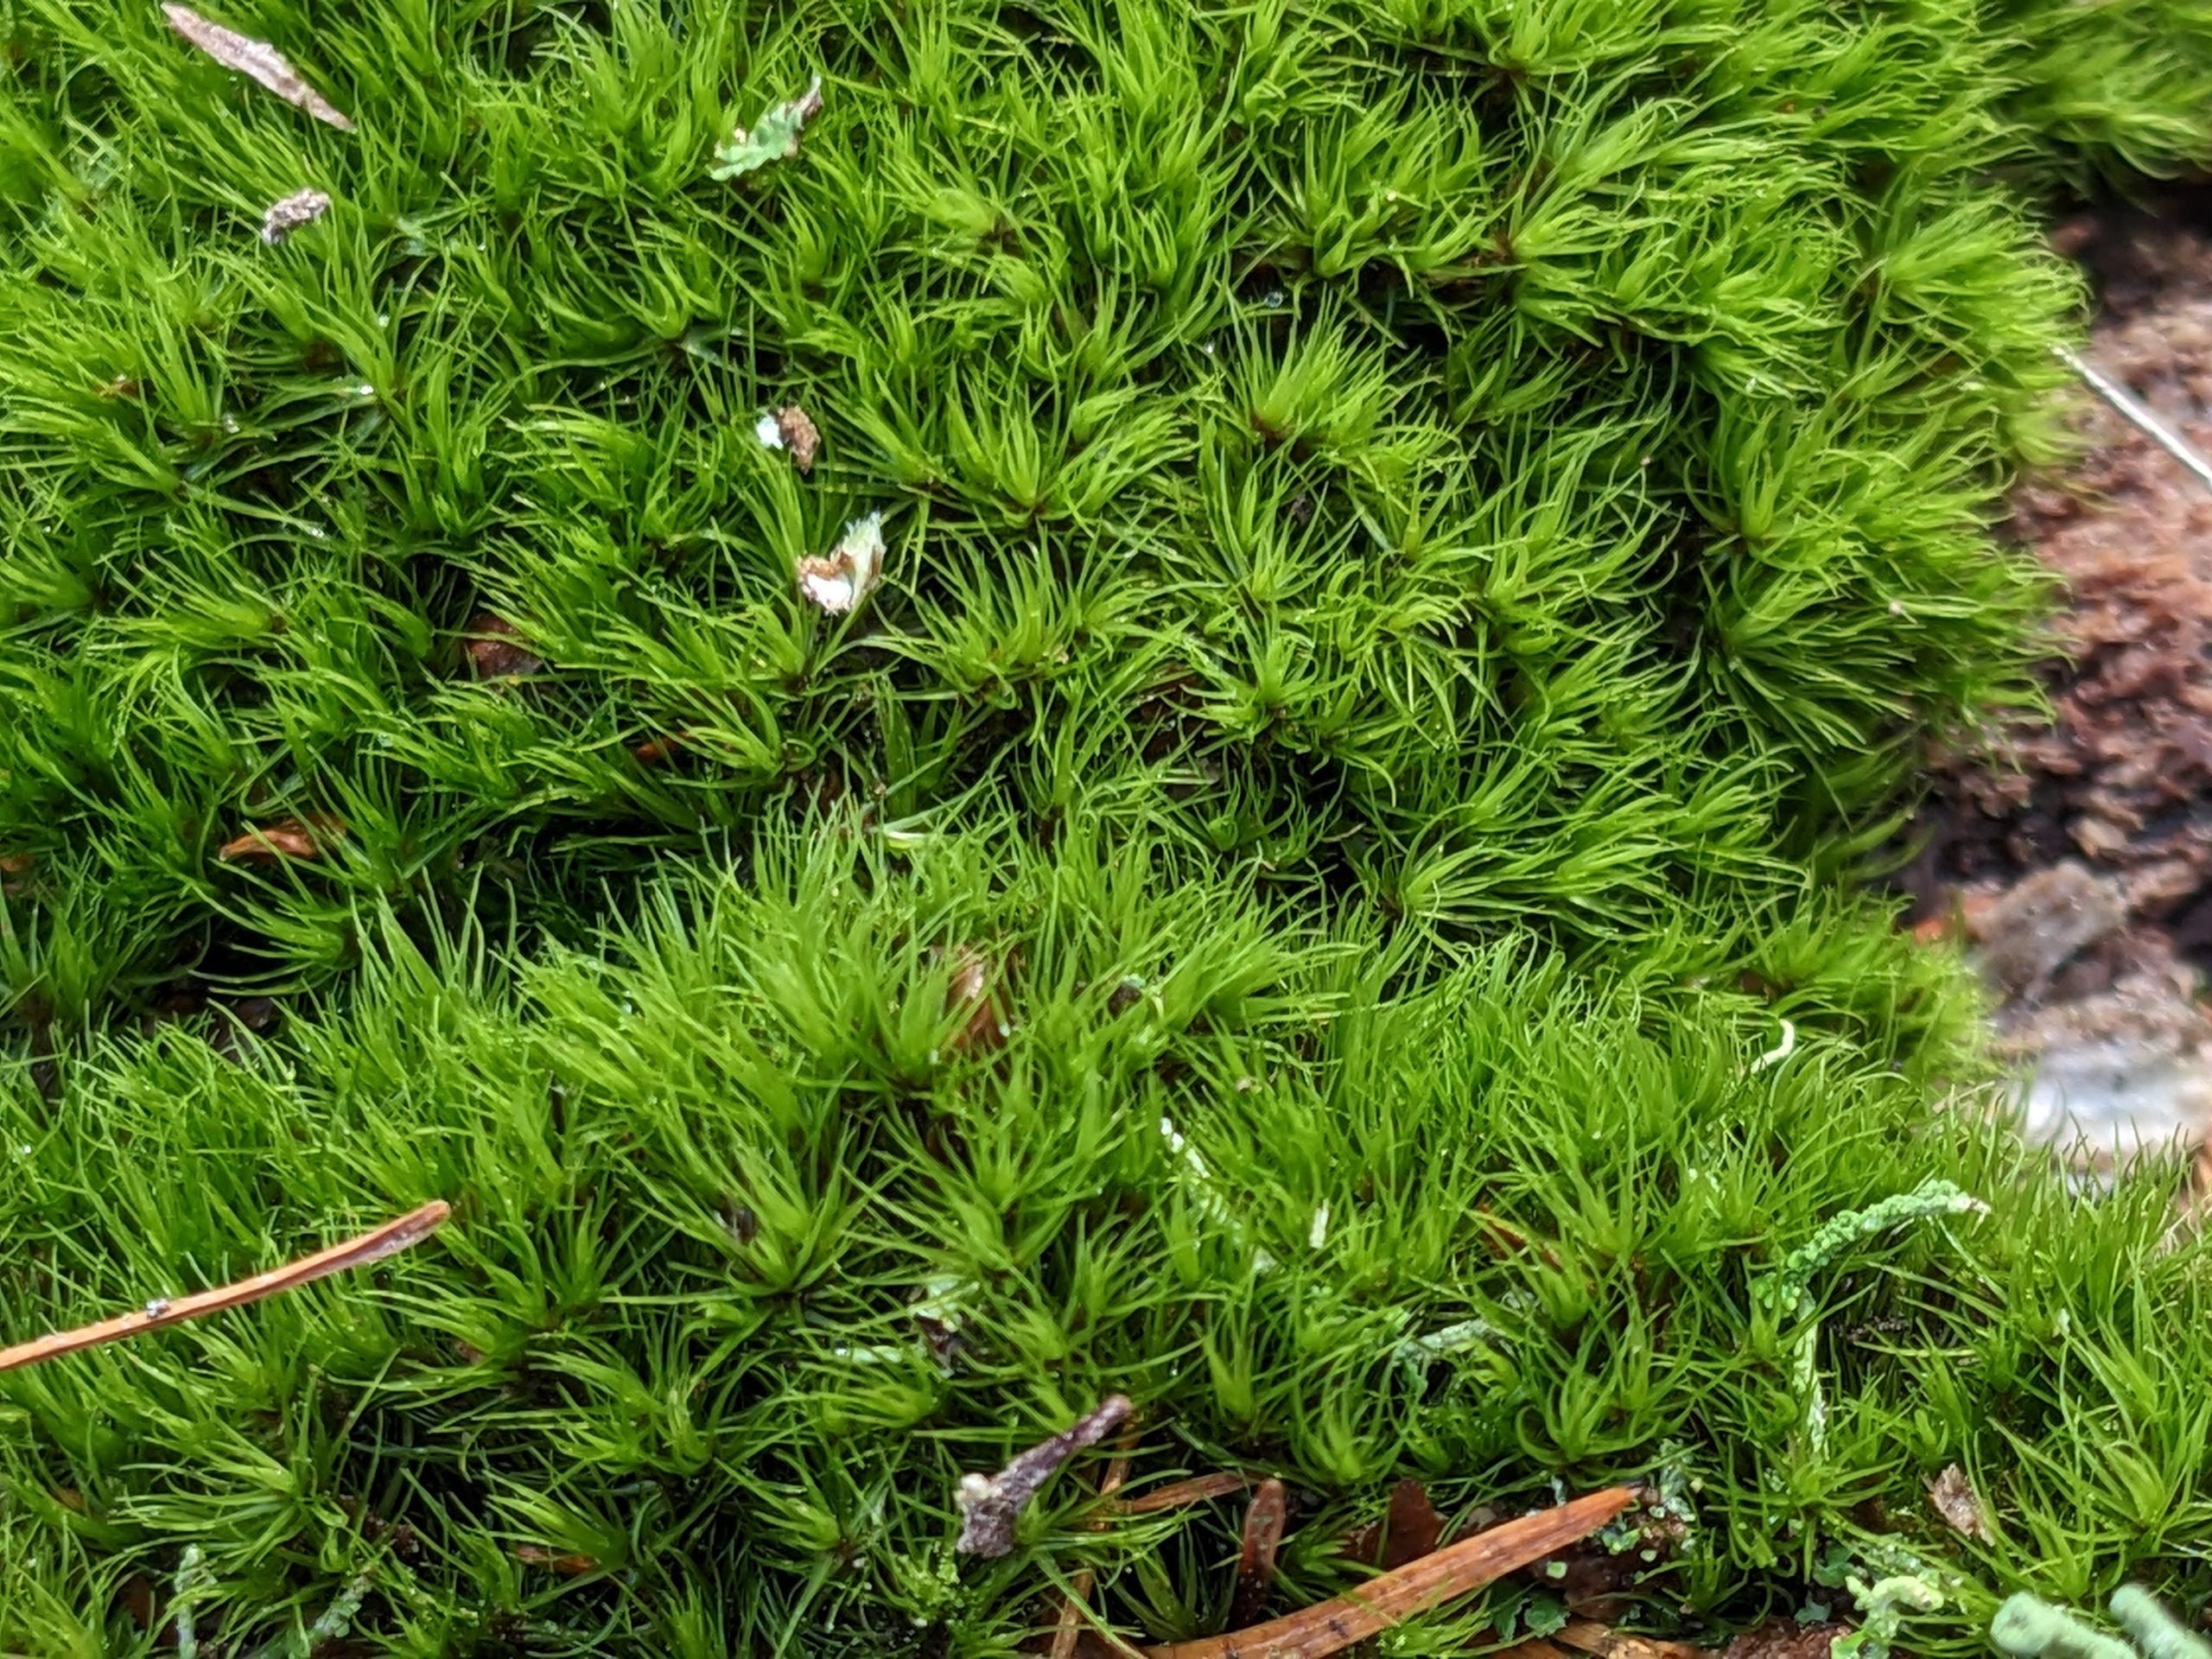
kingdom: Plantae
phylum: Bryophyta
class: Bryopsida
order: Dicranales
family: Dicranaceae
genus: Orthodicranum
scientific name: Orthodicranum montanum
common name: Tæt tyndvinge
